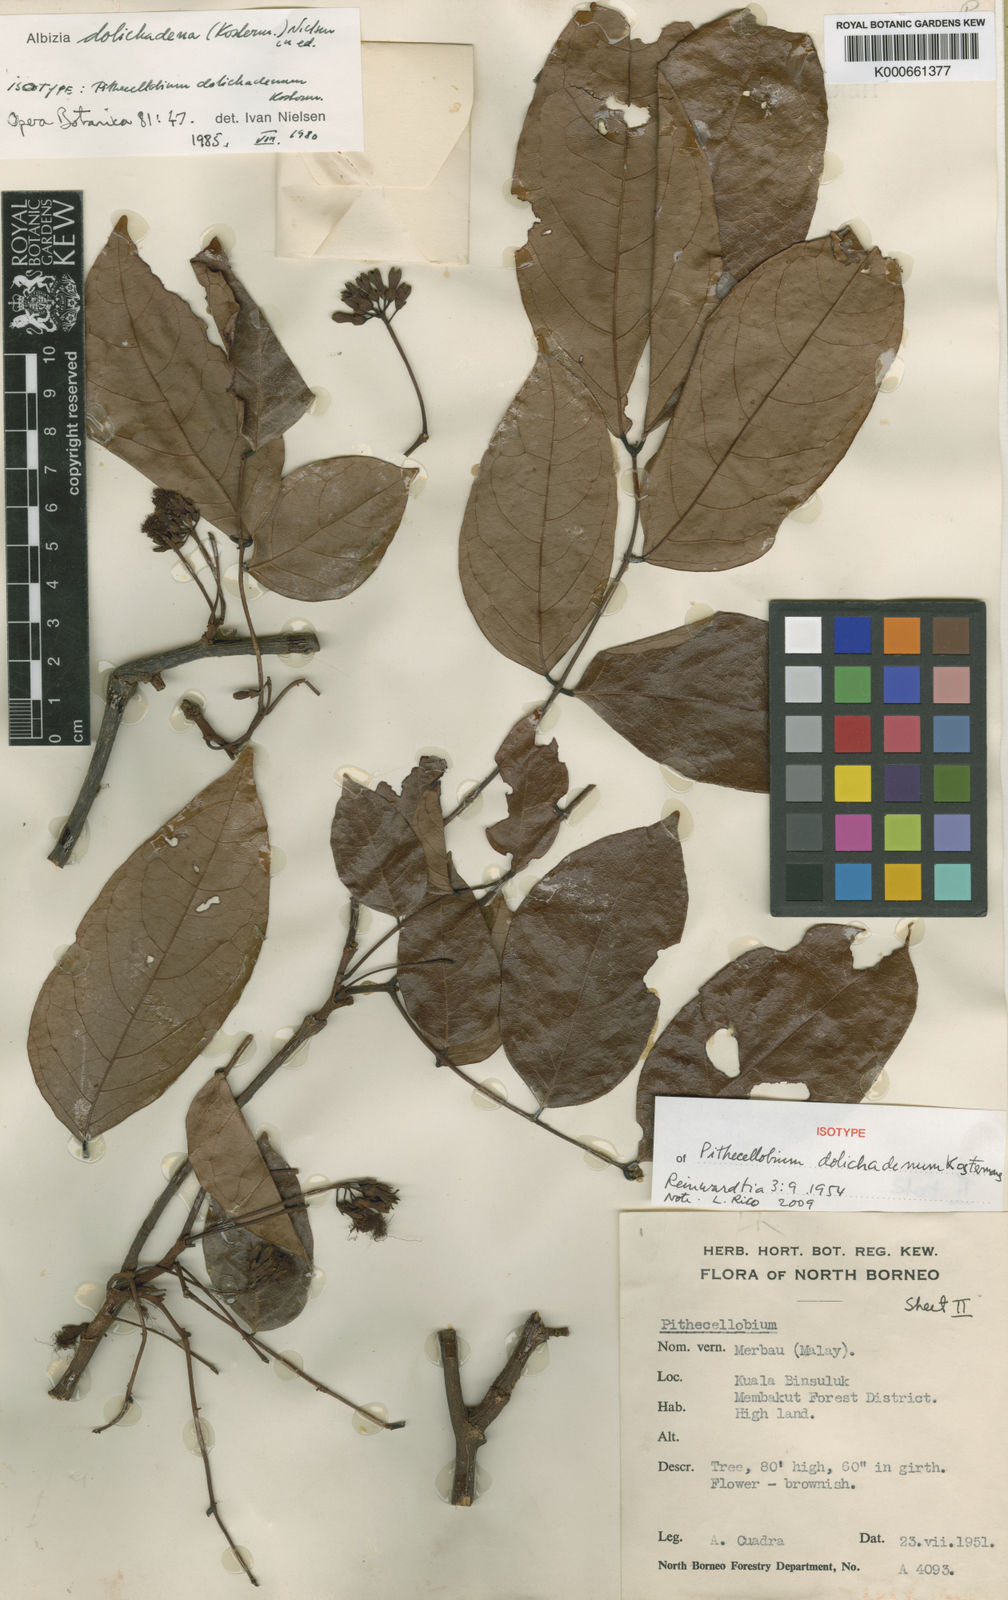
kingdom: Plantae
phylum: Tracheophyta
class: Magnoliopsida
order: Fabales
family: Fabaceae
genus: Albizia
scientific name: Albizia dolichadena
